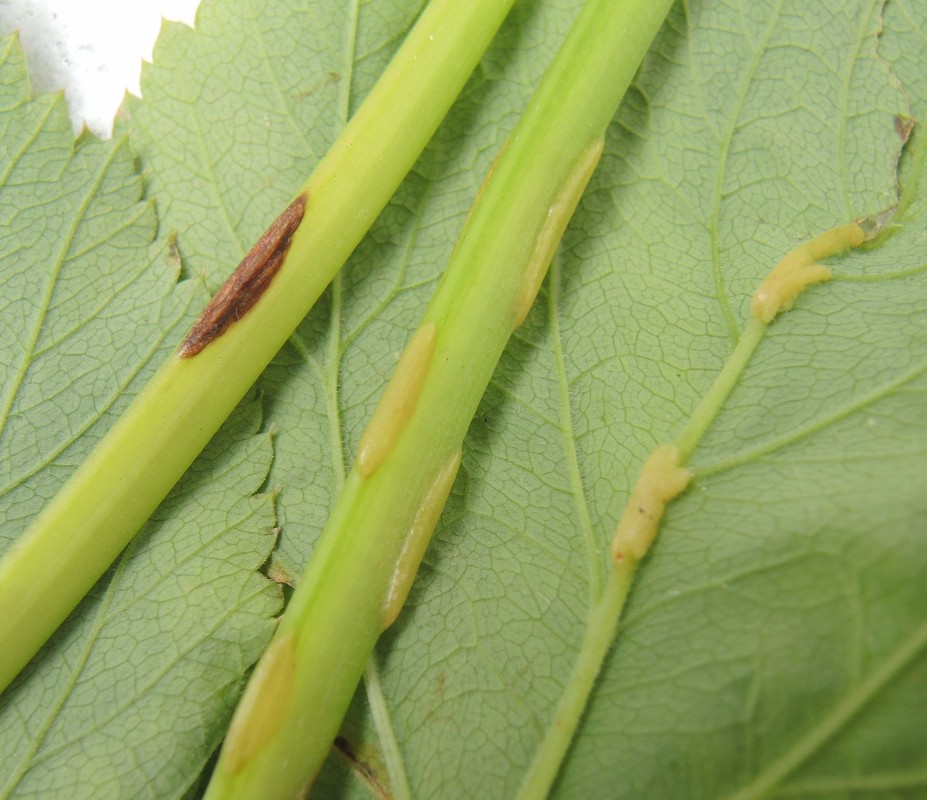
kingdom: Fungi
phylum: Ascomycota
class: Taphrinomycetes
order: Taphrinales
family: Taphrinaceae
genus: Protomyces
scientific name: Protomyces macrosporus
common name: skvalderkål-vablesæk
